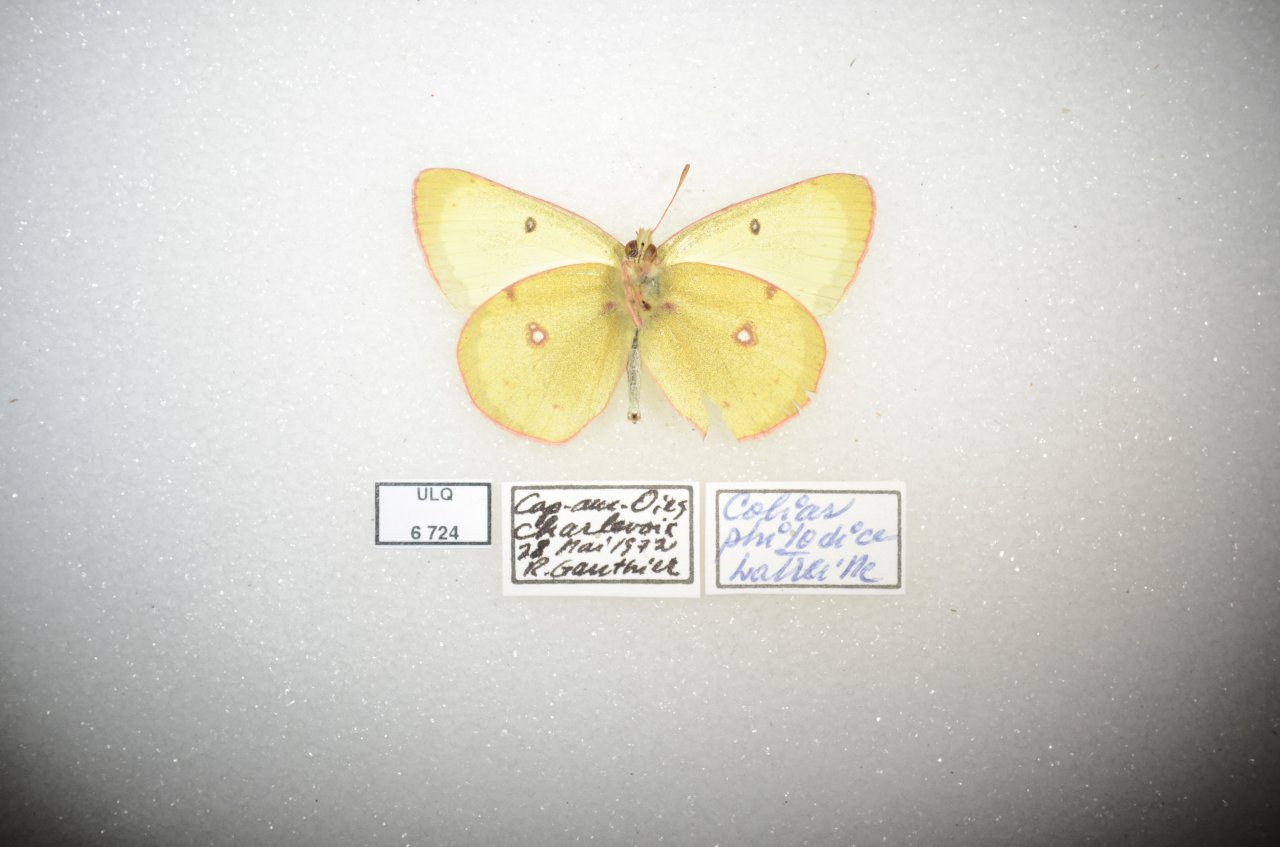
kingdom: Animalia
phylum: Arthropoda
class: Insecta
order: Lepidoptera
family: Pieridae
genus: Colias
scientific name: Colias philodice
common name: Clouded Sulphur
